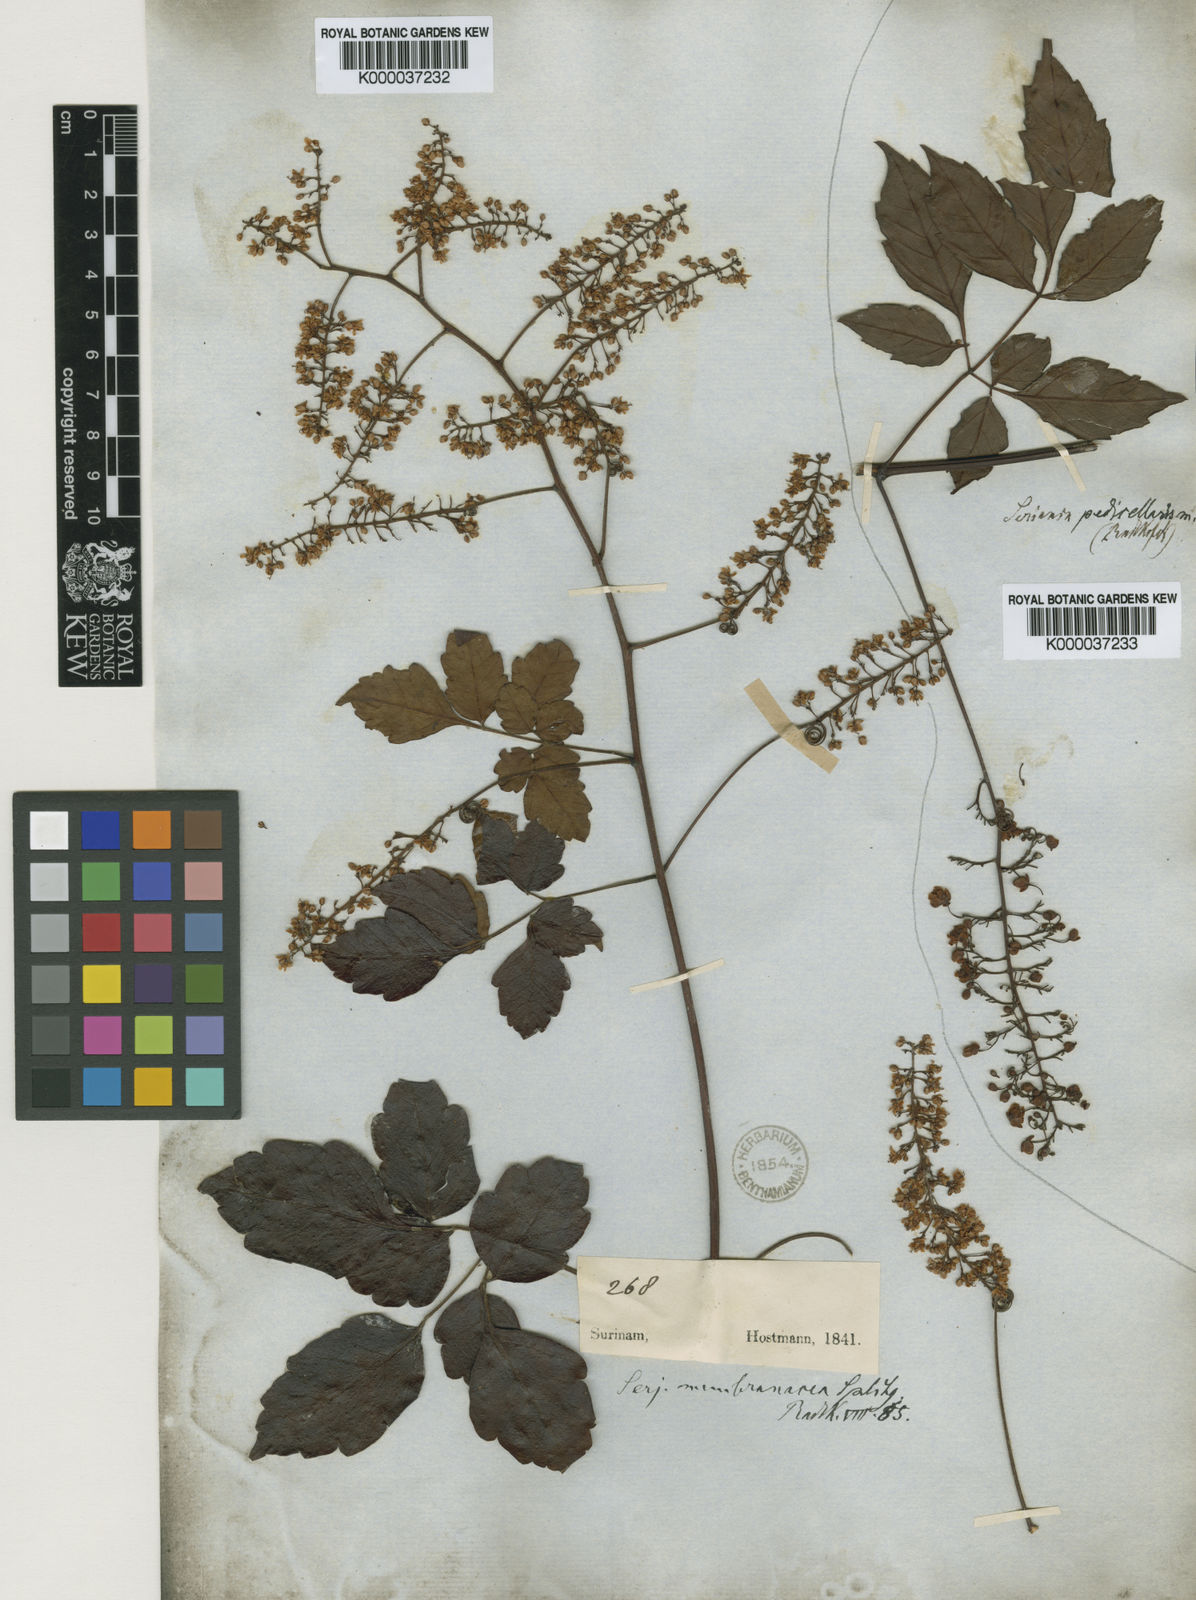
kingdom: Plantae
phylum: Tracheophyta
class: Magnoliopsida
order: Sapindales
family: Sapindaceae
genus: Serjania
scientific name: Serjania pedicellaris
